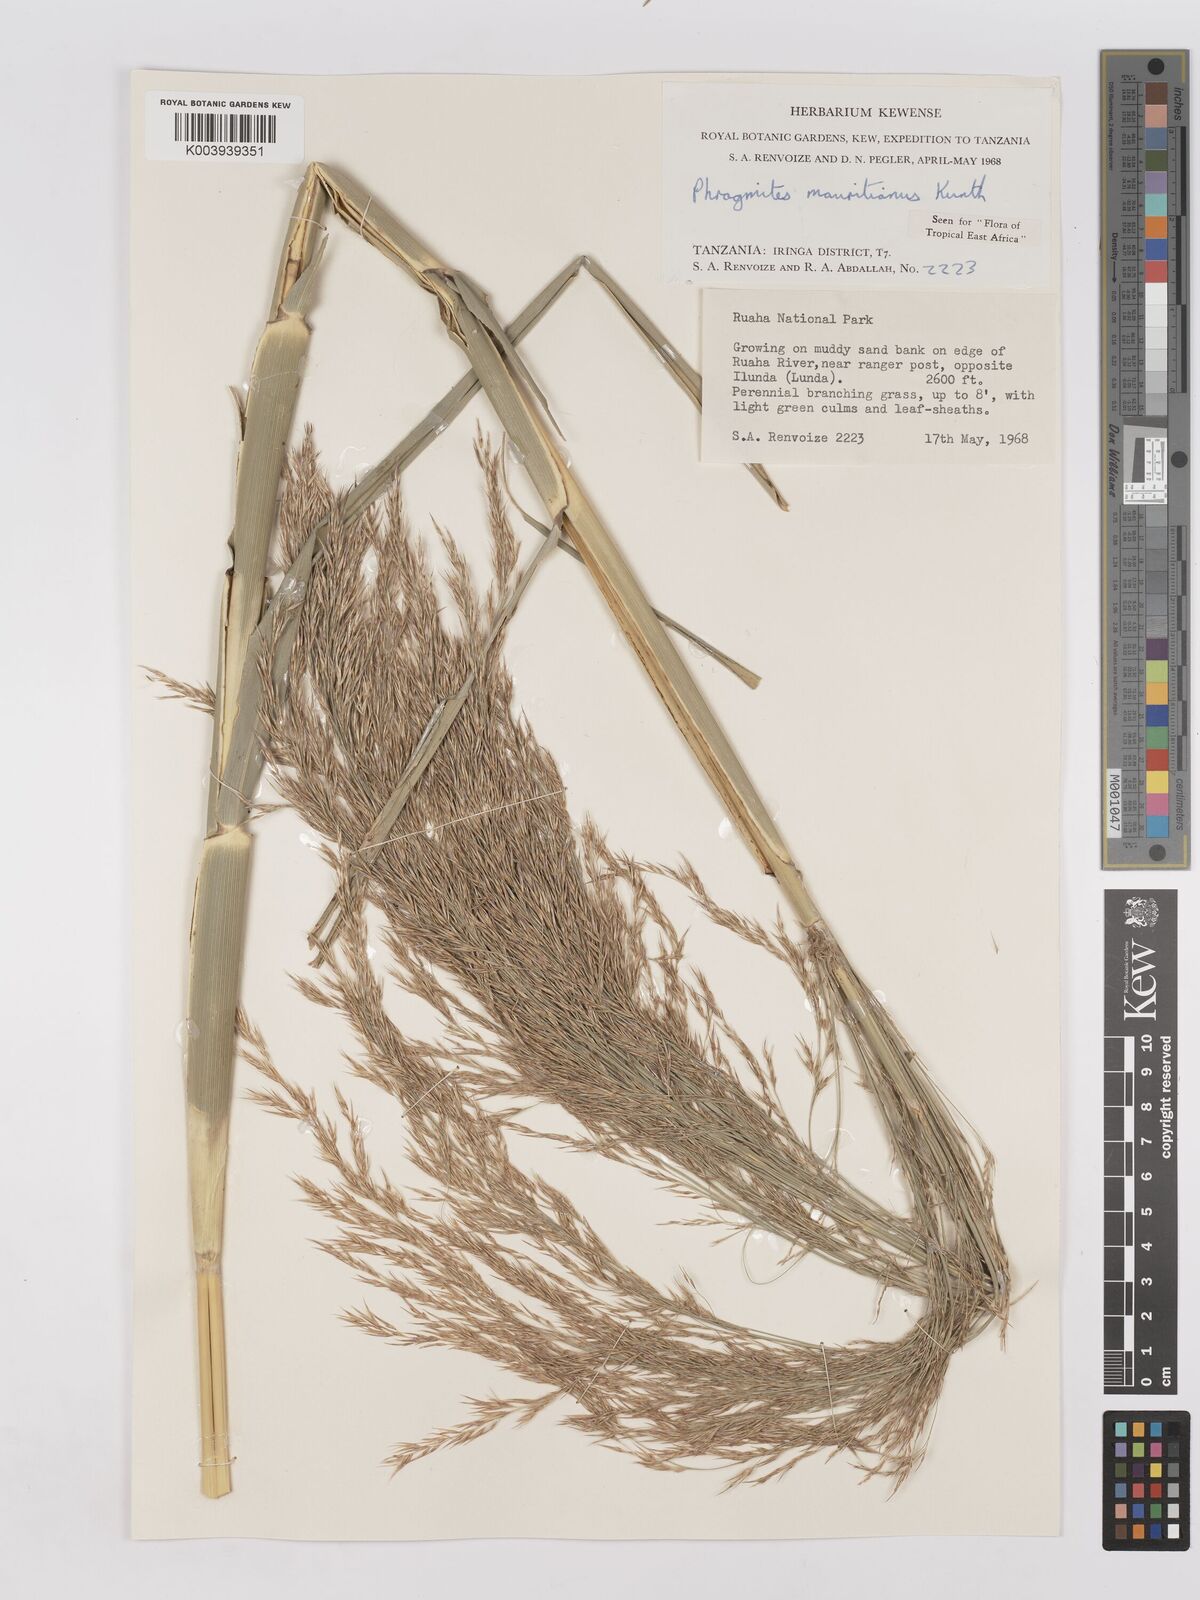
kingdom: Plantae
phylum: Tracheophyta
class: Liliopsida
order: Poales
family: Poaceae
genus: Phragmites
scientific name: Phragmites mauritianus
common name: Reed grass
